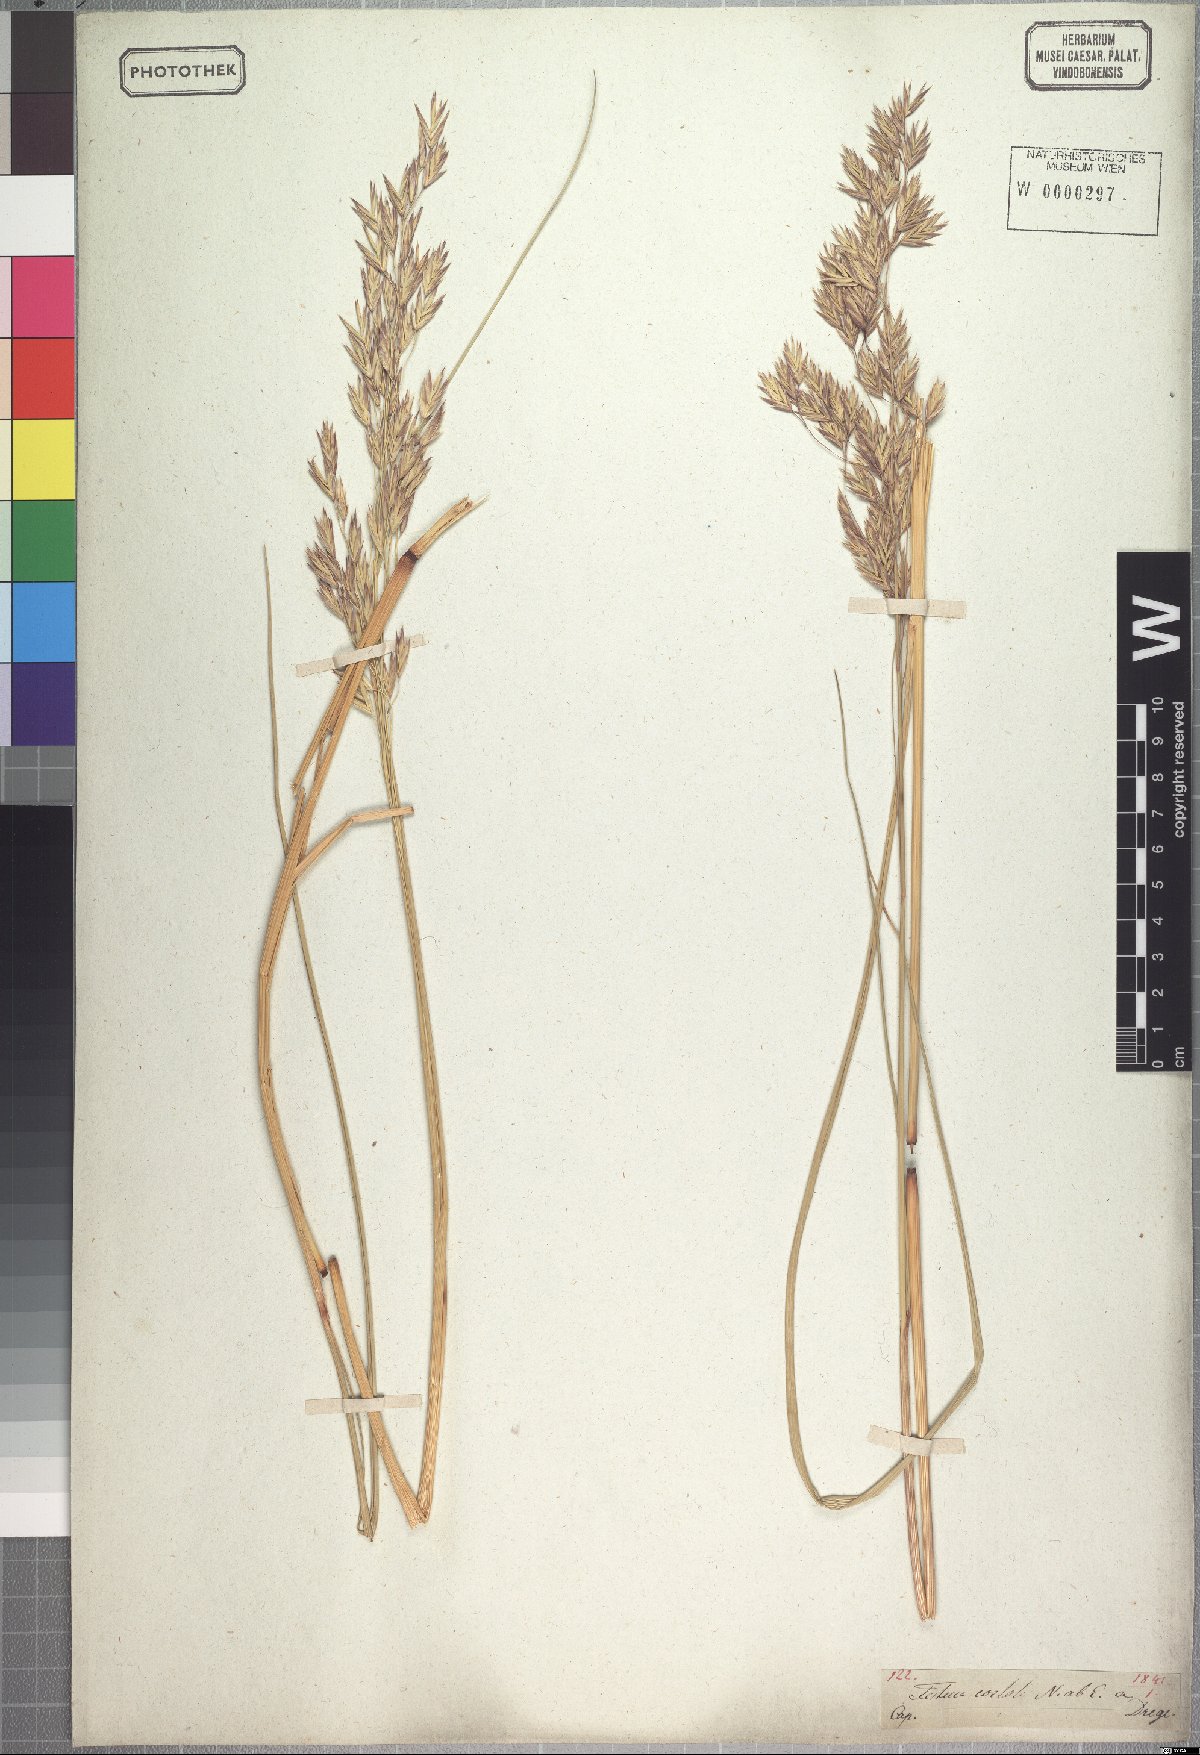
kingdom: Plantae
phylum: Tracheophyta
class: Liliopsida
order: Poales
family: Poaceae
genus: Festuca
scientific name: Festuca costata
